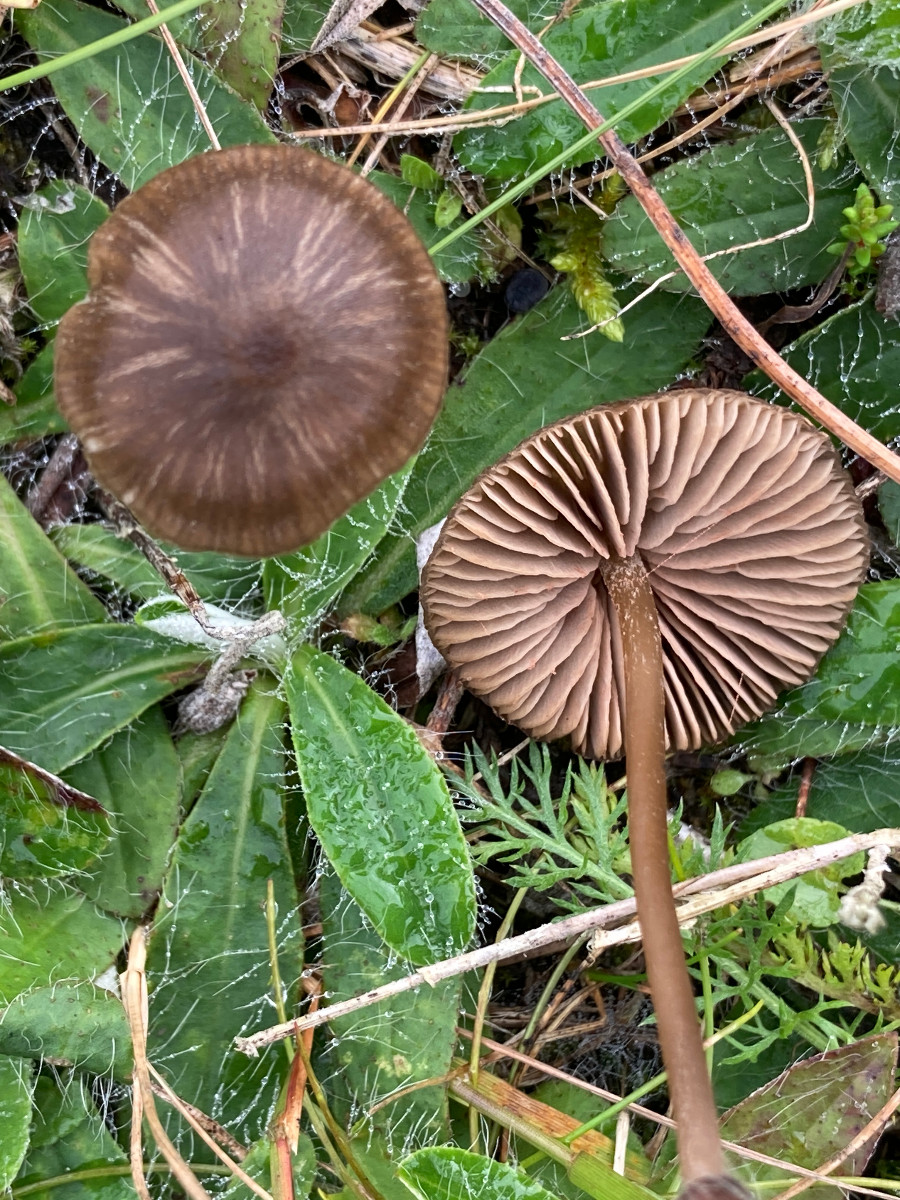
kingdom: Fungi
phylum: Basidiomycota
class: Agaricomycetes
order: Agaricales
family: Entolomataceae
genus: Entoloma
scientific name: Entoloma clandestinum
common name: tykbladet rødblad
